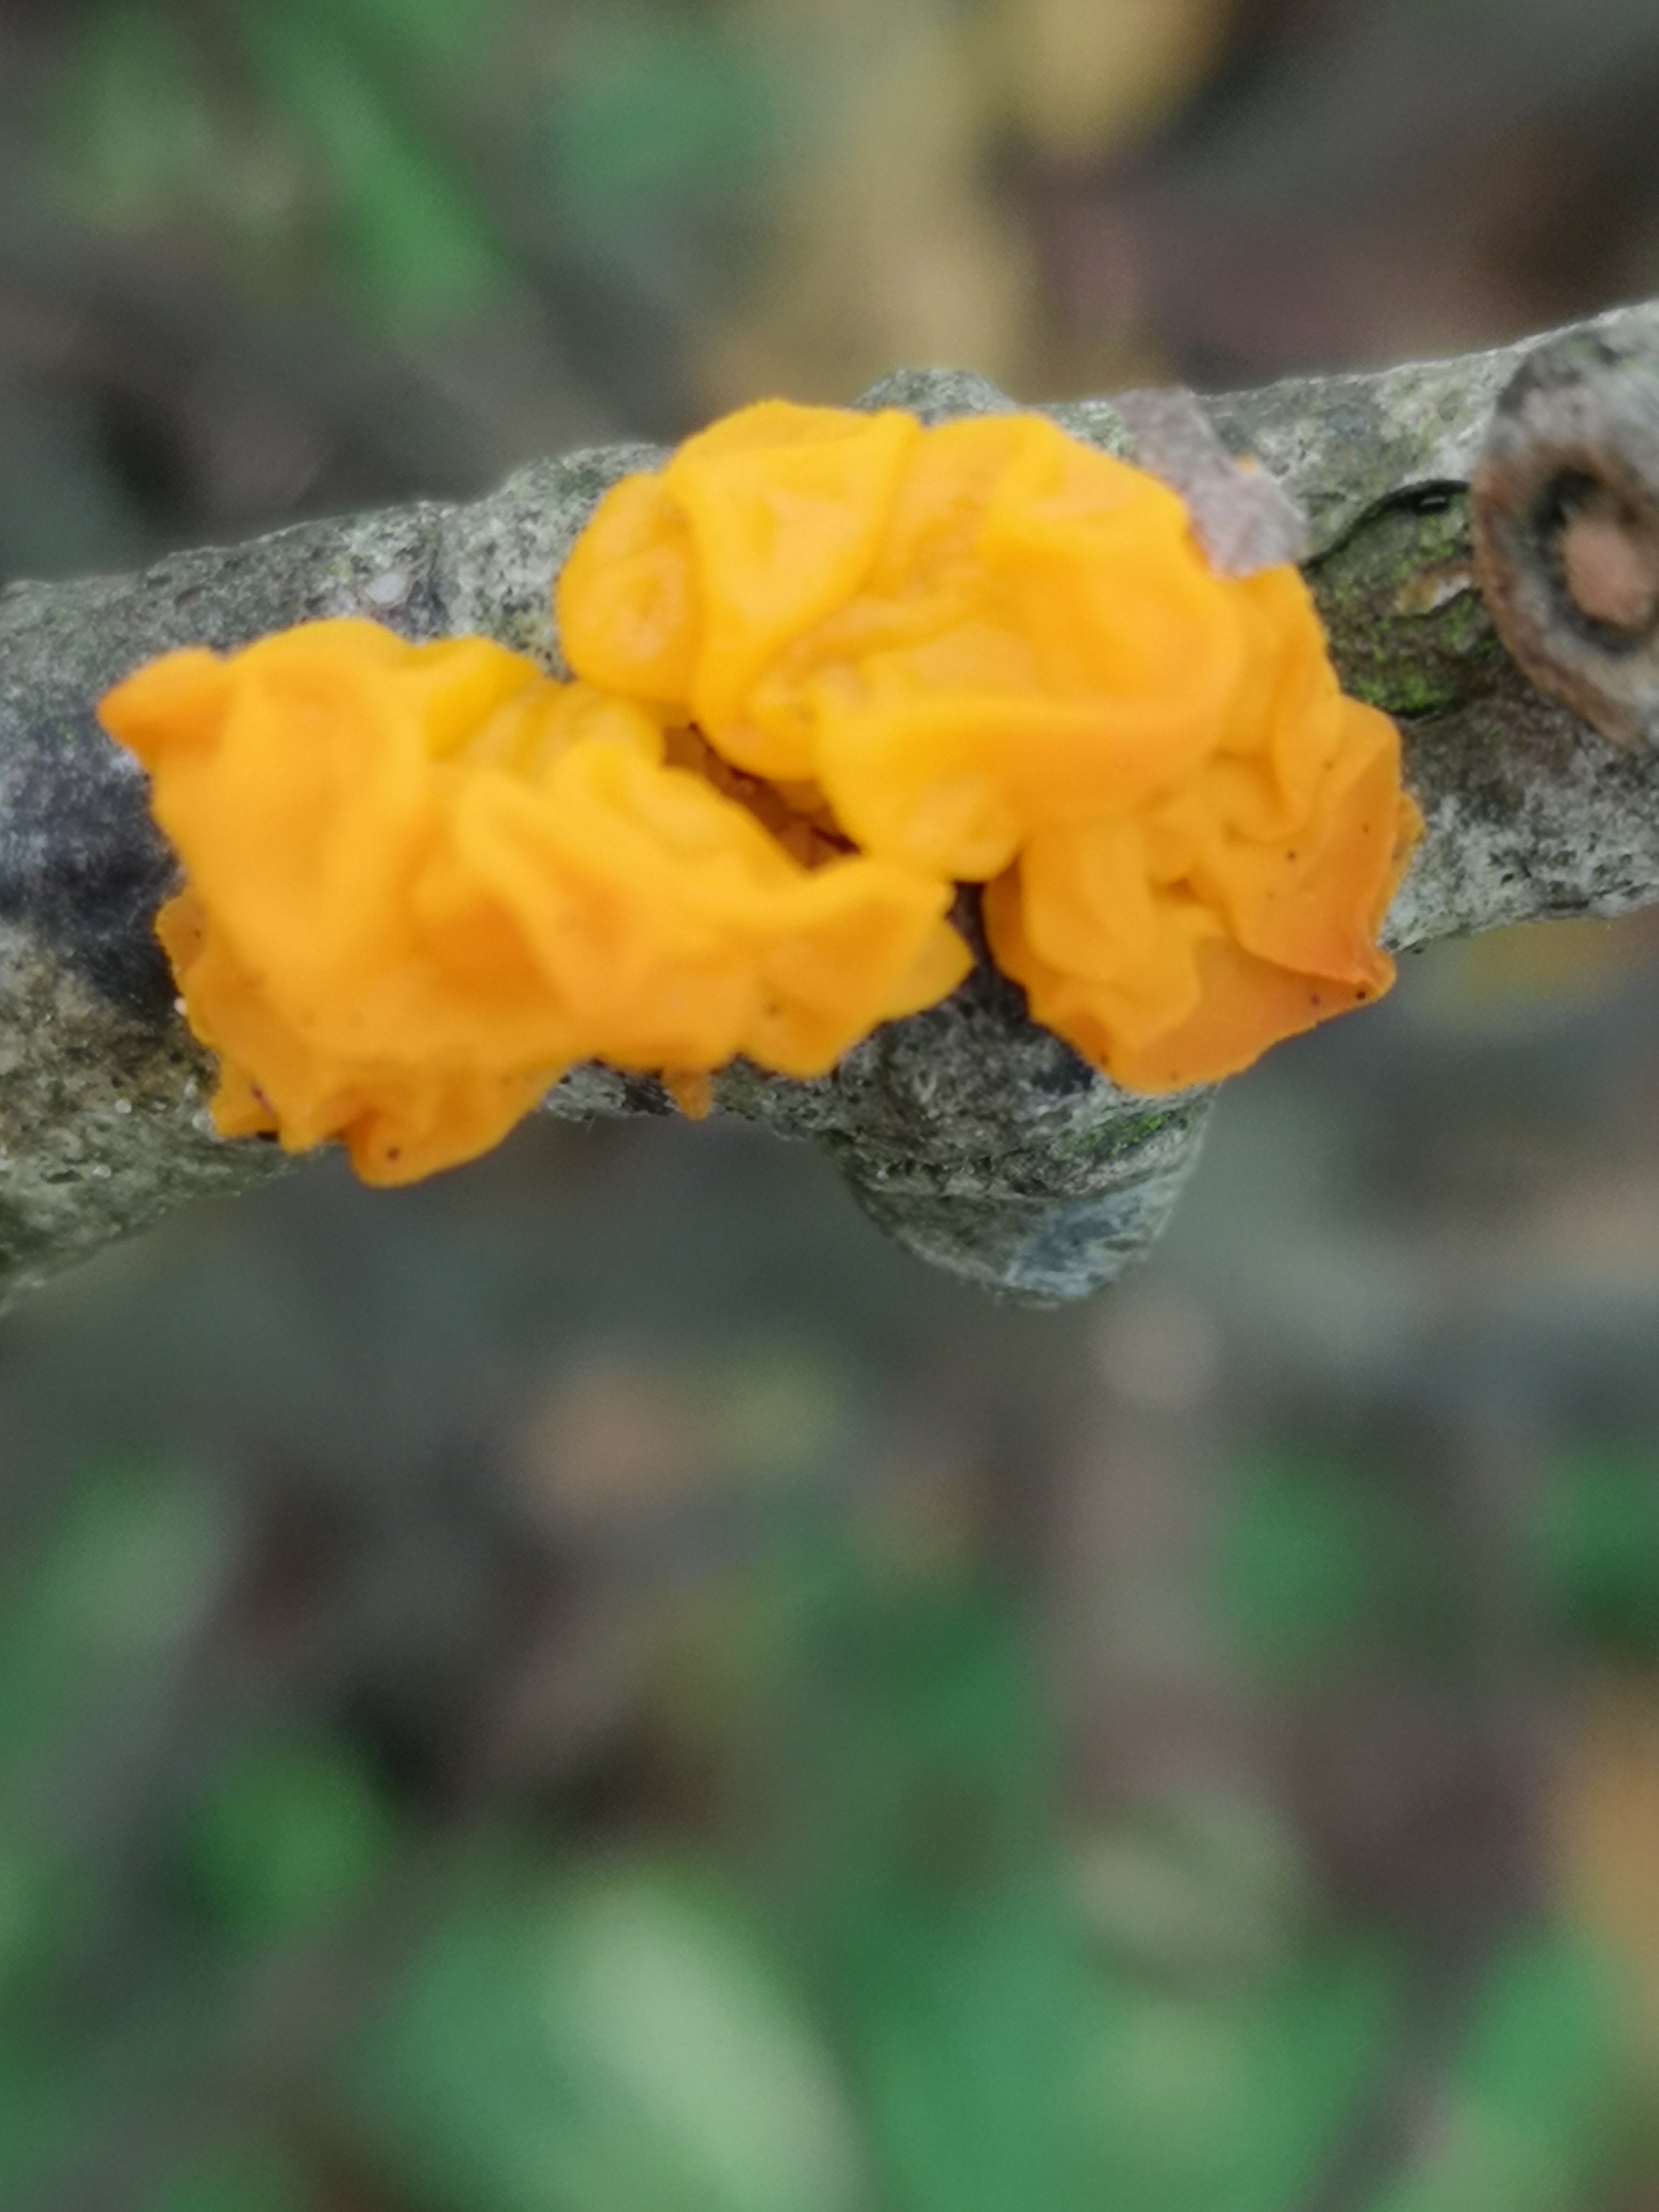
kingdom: Fungi
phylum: Basidiomycota
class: Tremellomycetes
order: Tremellales
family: Tremellaceae
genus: Tremella
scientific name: Tremella mesenterica
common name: gul bævresvamp
